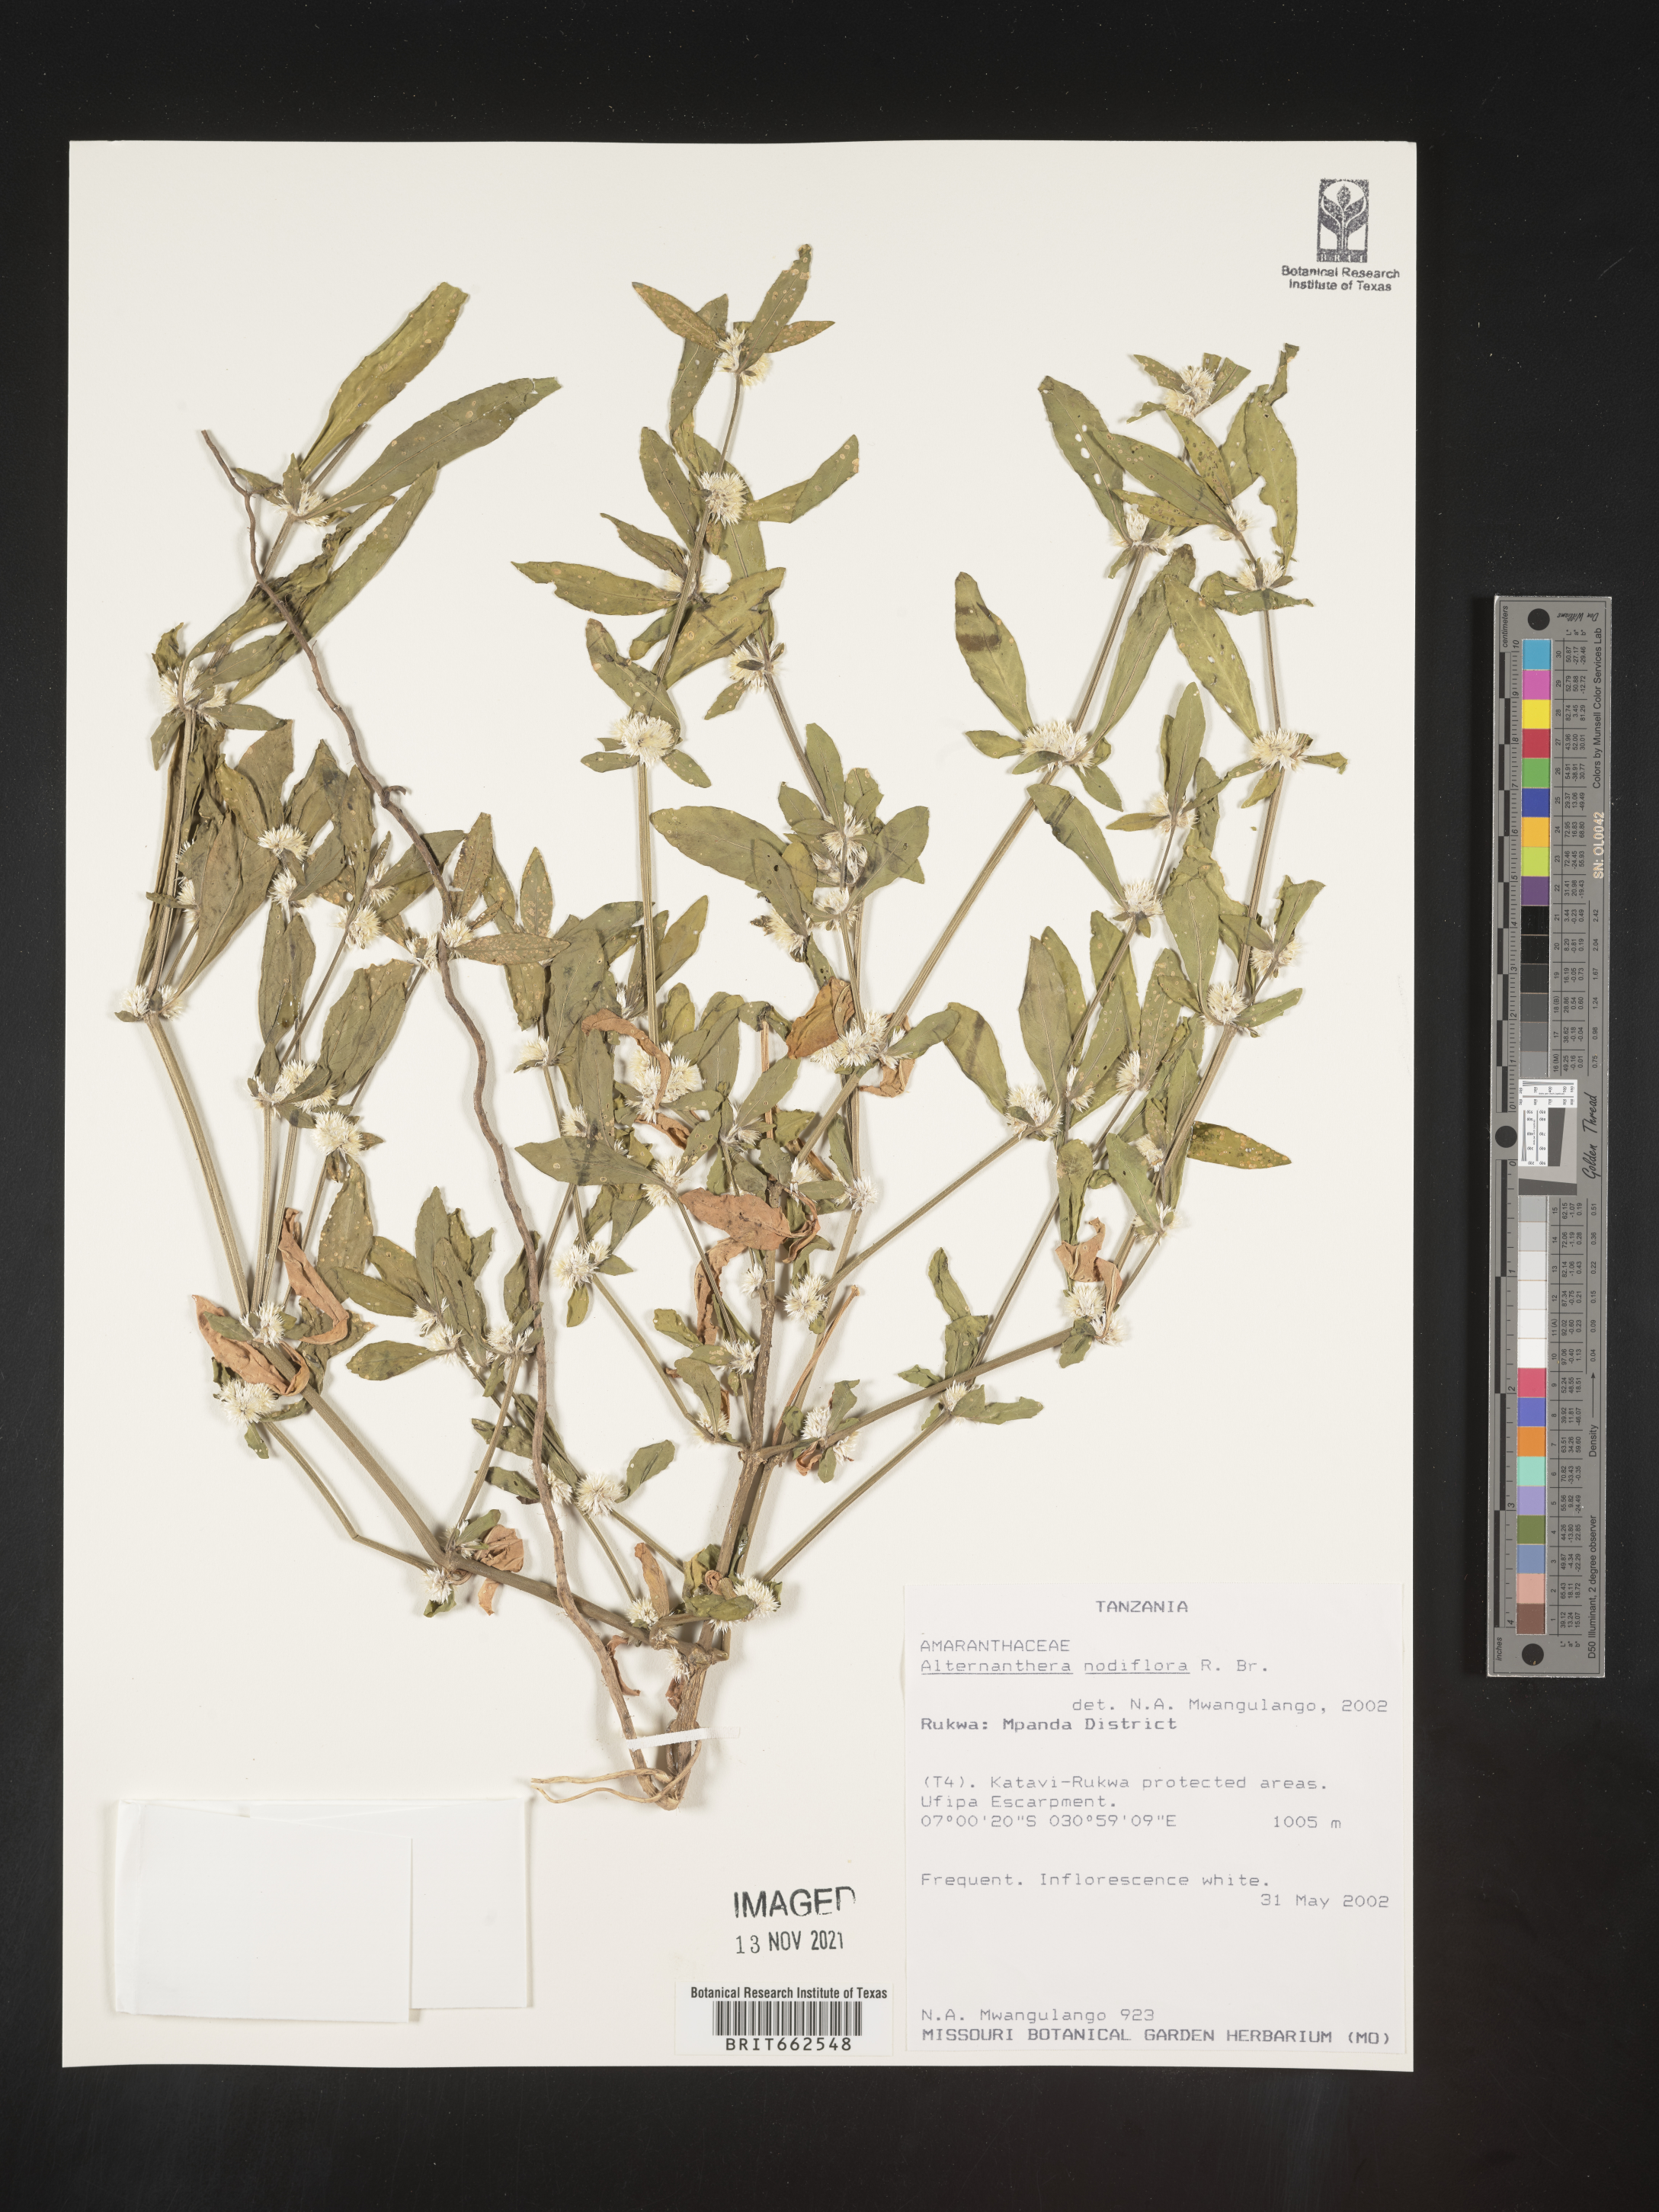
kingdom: Plantae
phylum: Tracheophyta
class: Magnoliopsida
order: Caryophyllales
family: Amaranthaceae
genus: Alternanthera
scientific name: Alternanthera
